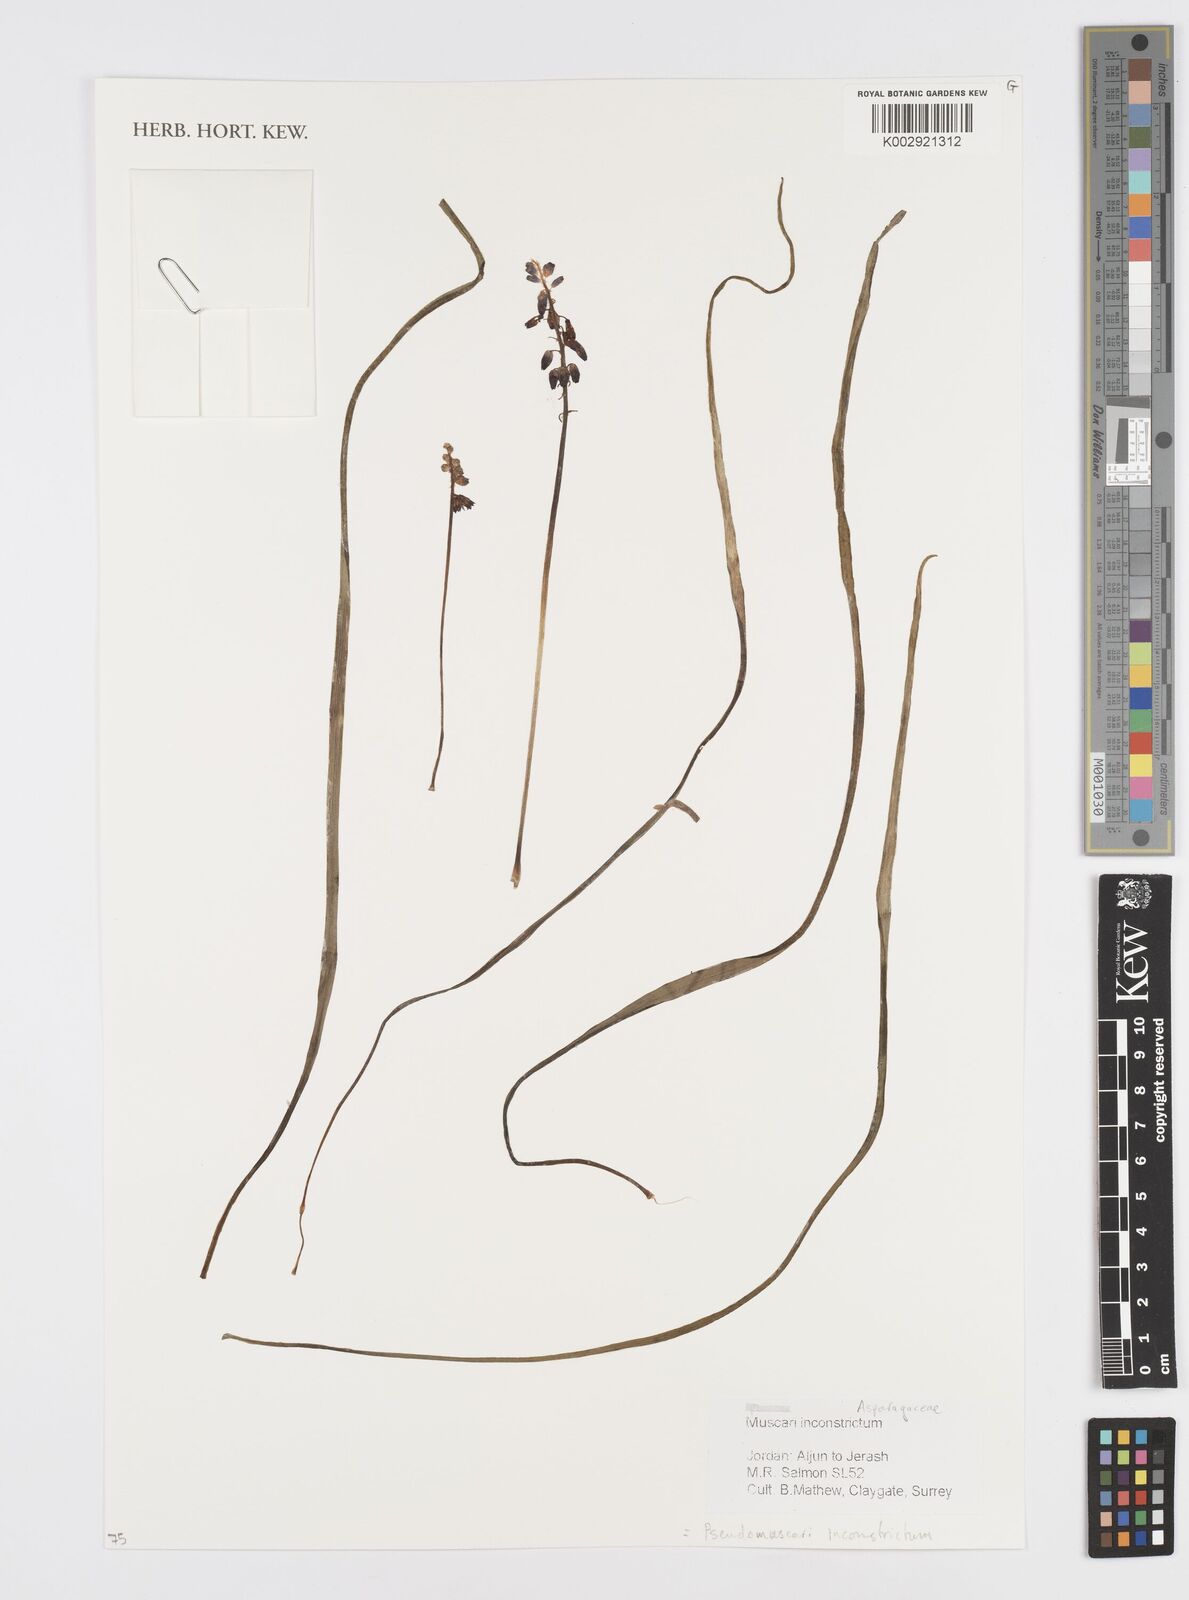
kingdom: Plantae
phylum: Tracheophyta
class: Liliopsida
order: Asparagales
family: Asparagaceae
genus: Muscari
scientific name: Muscari inconstrictum
